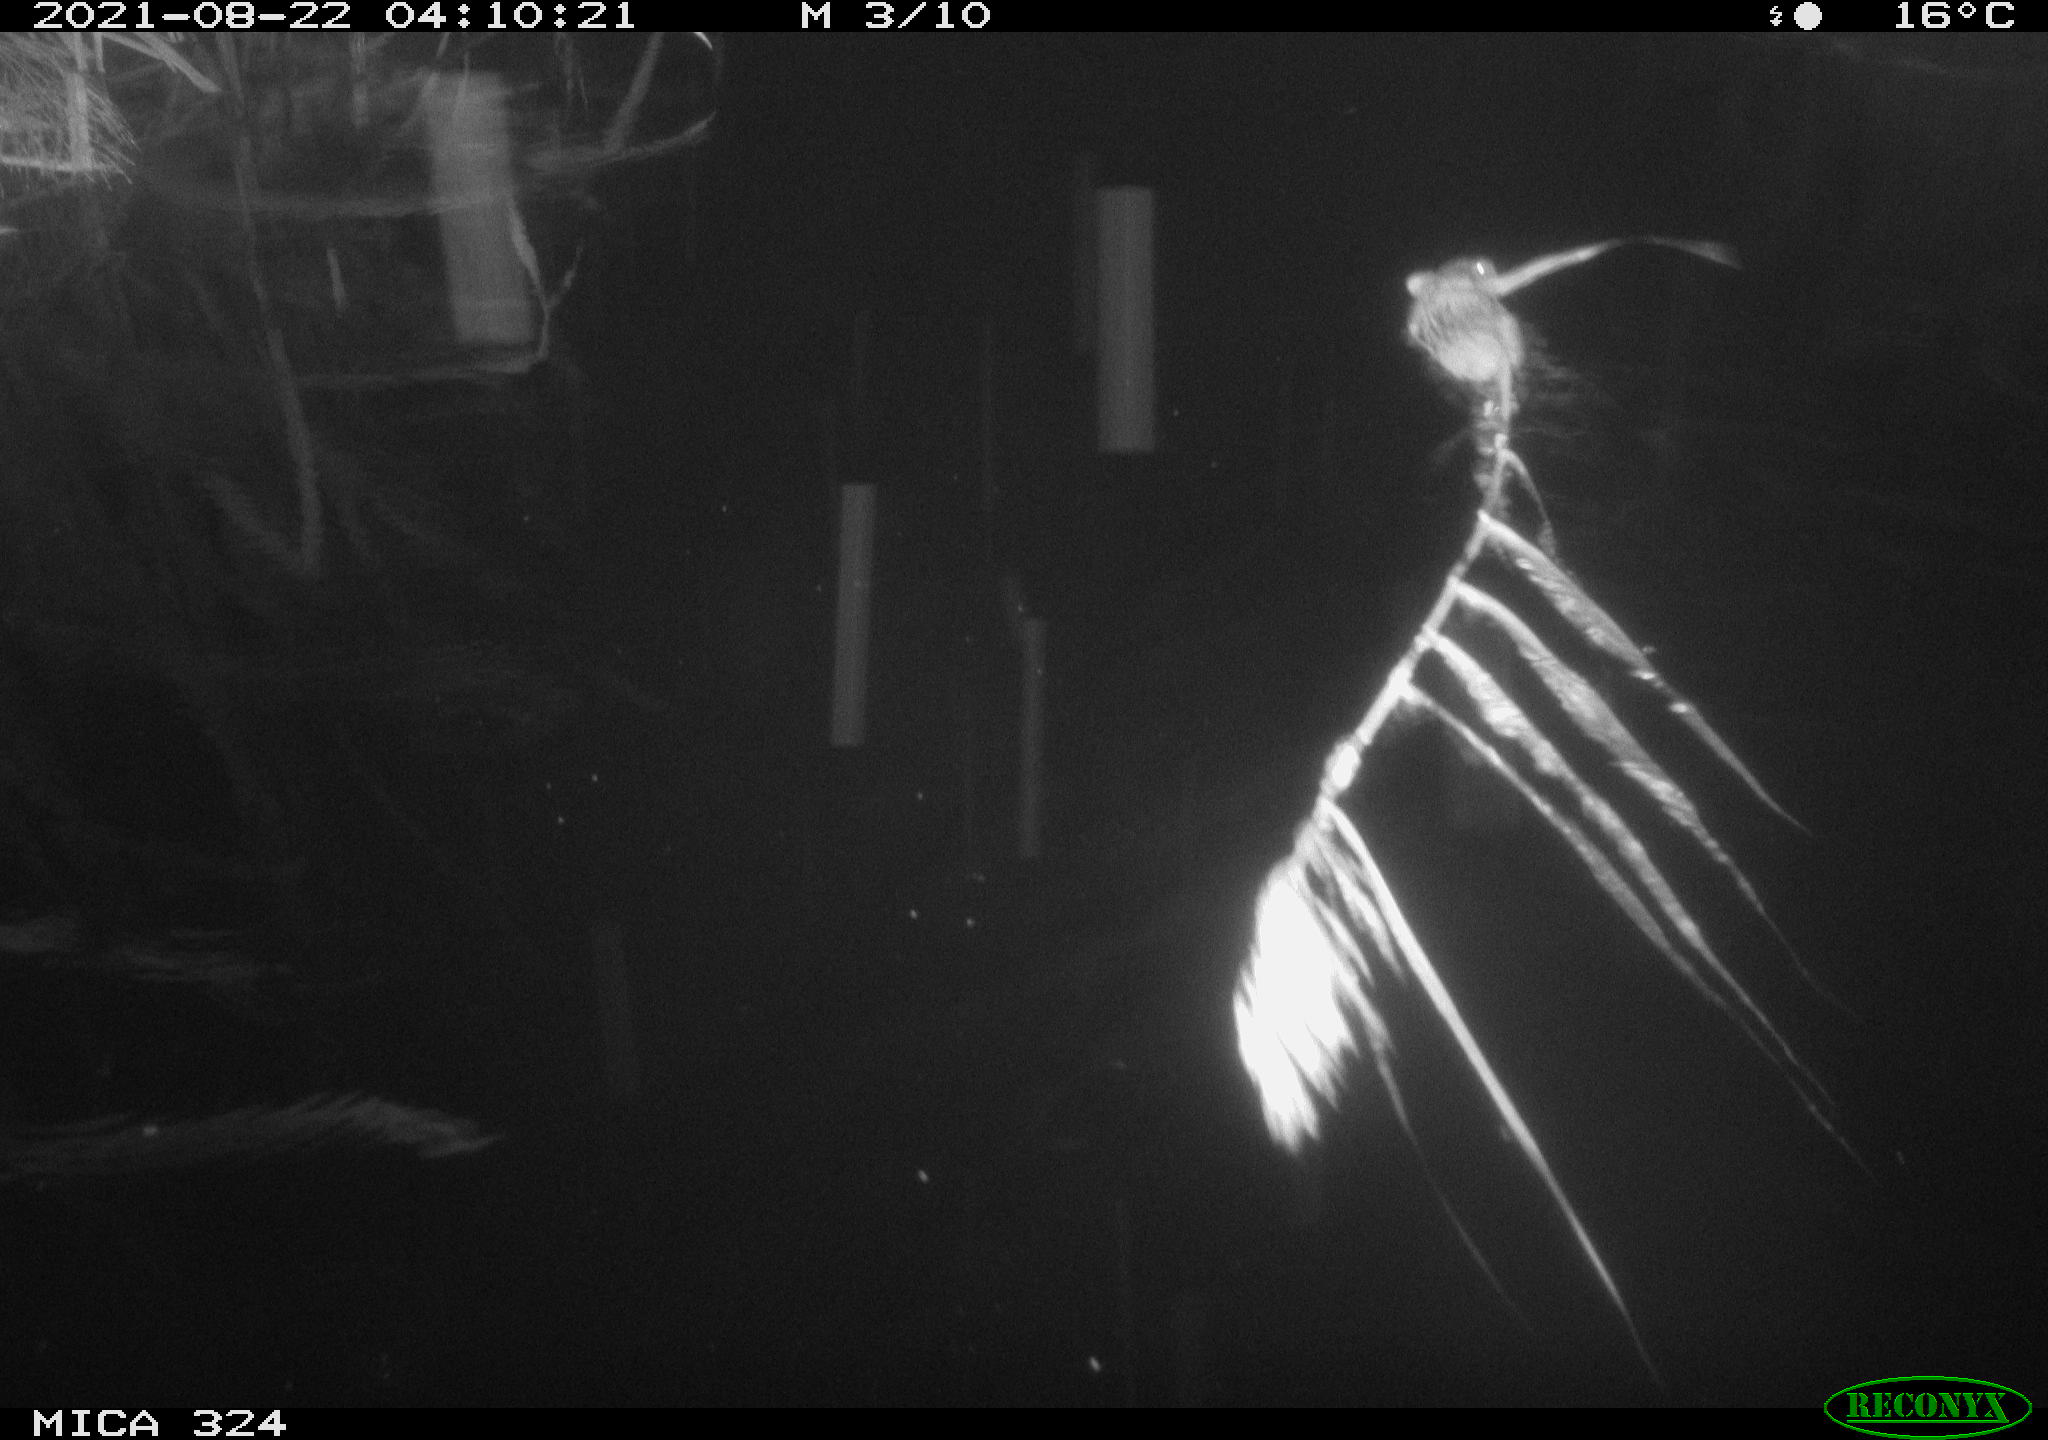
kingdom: Animalia
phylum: Chordata
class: Mammalia
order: Rodentia
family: Cricetidae
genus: Ondatra
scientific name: Ondatra zibethicus
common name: Muskrat
